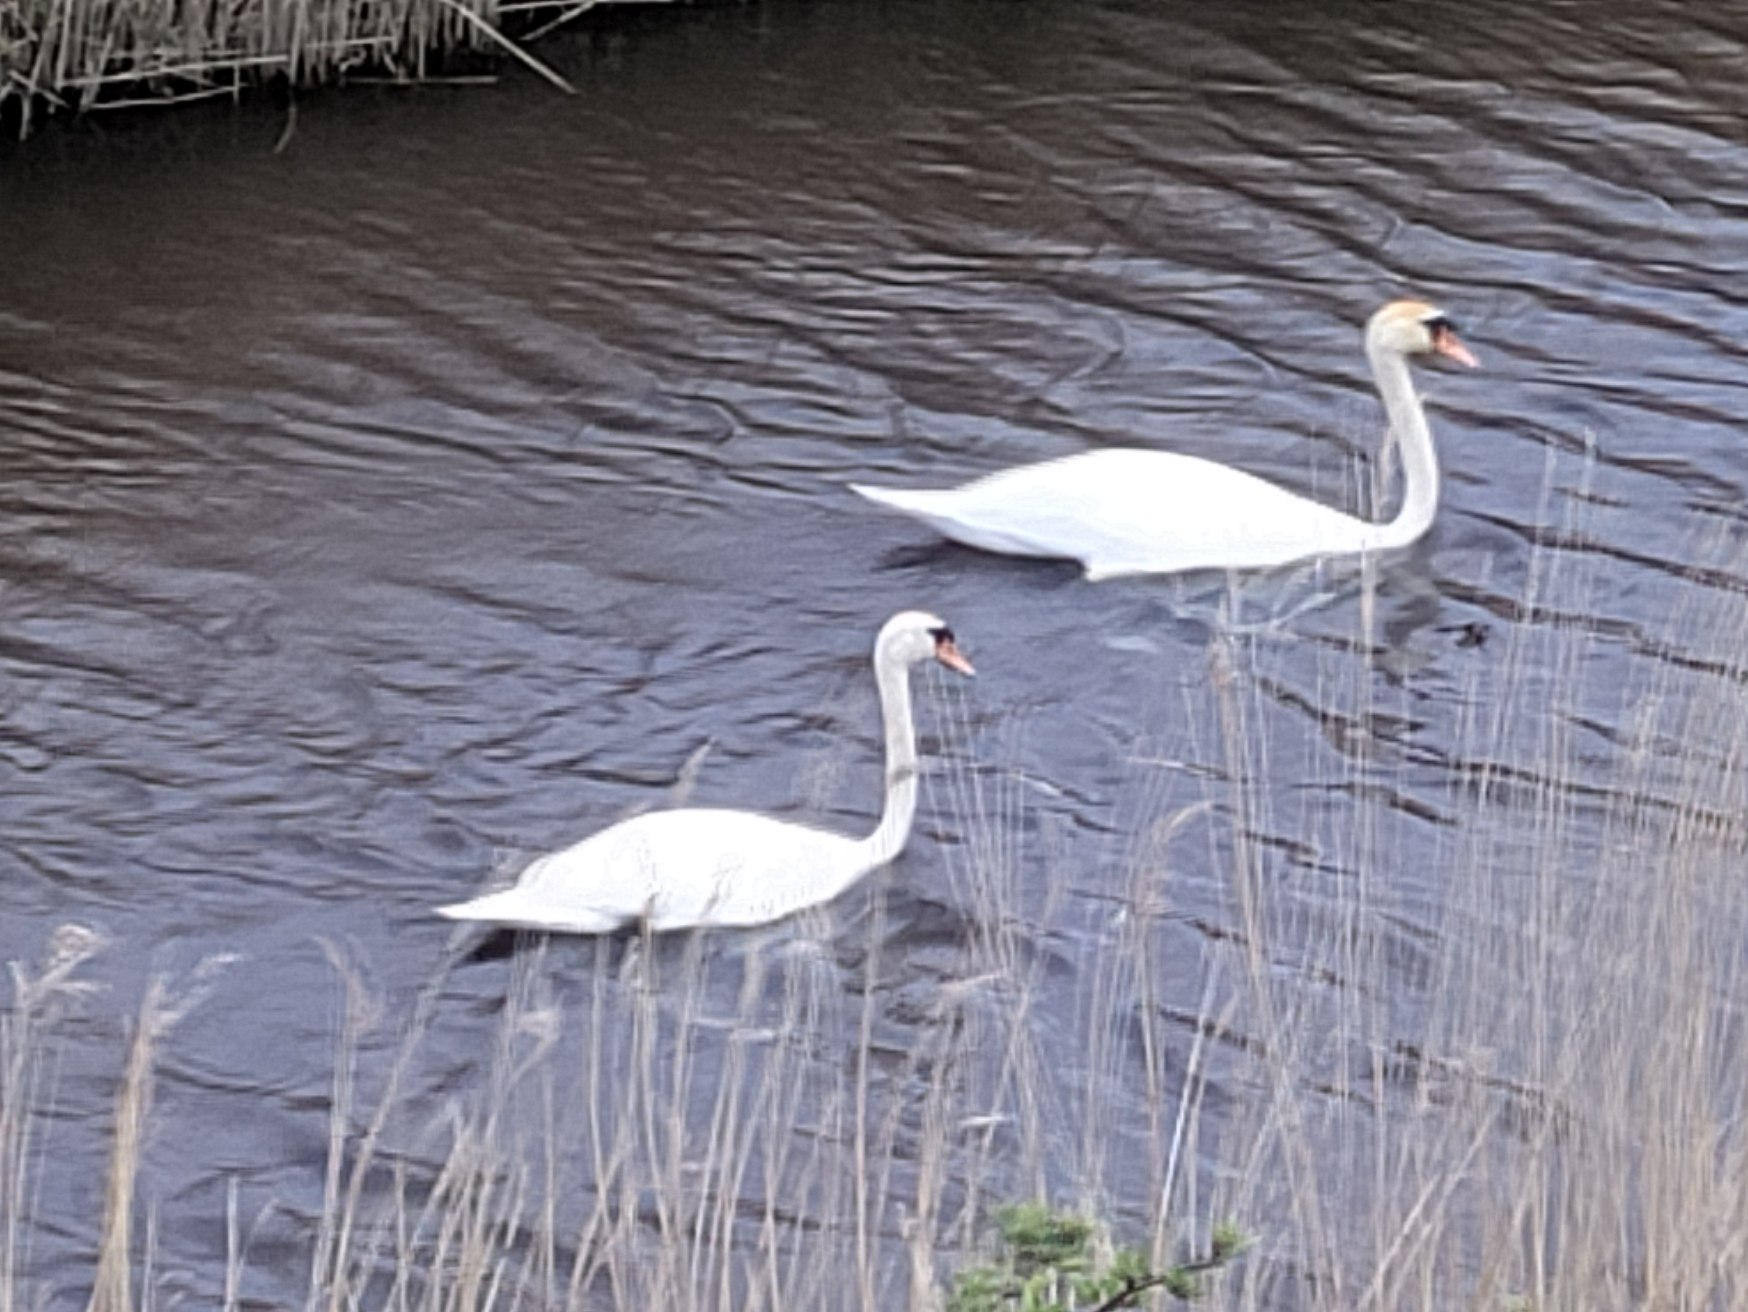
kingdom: Animalia
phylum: Chordata
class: Aves
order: Anseriformes
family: Anatidae
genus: Cygnus
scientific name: Cygnus olor
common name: Knopsvane
